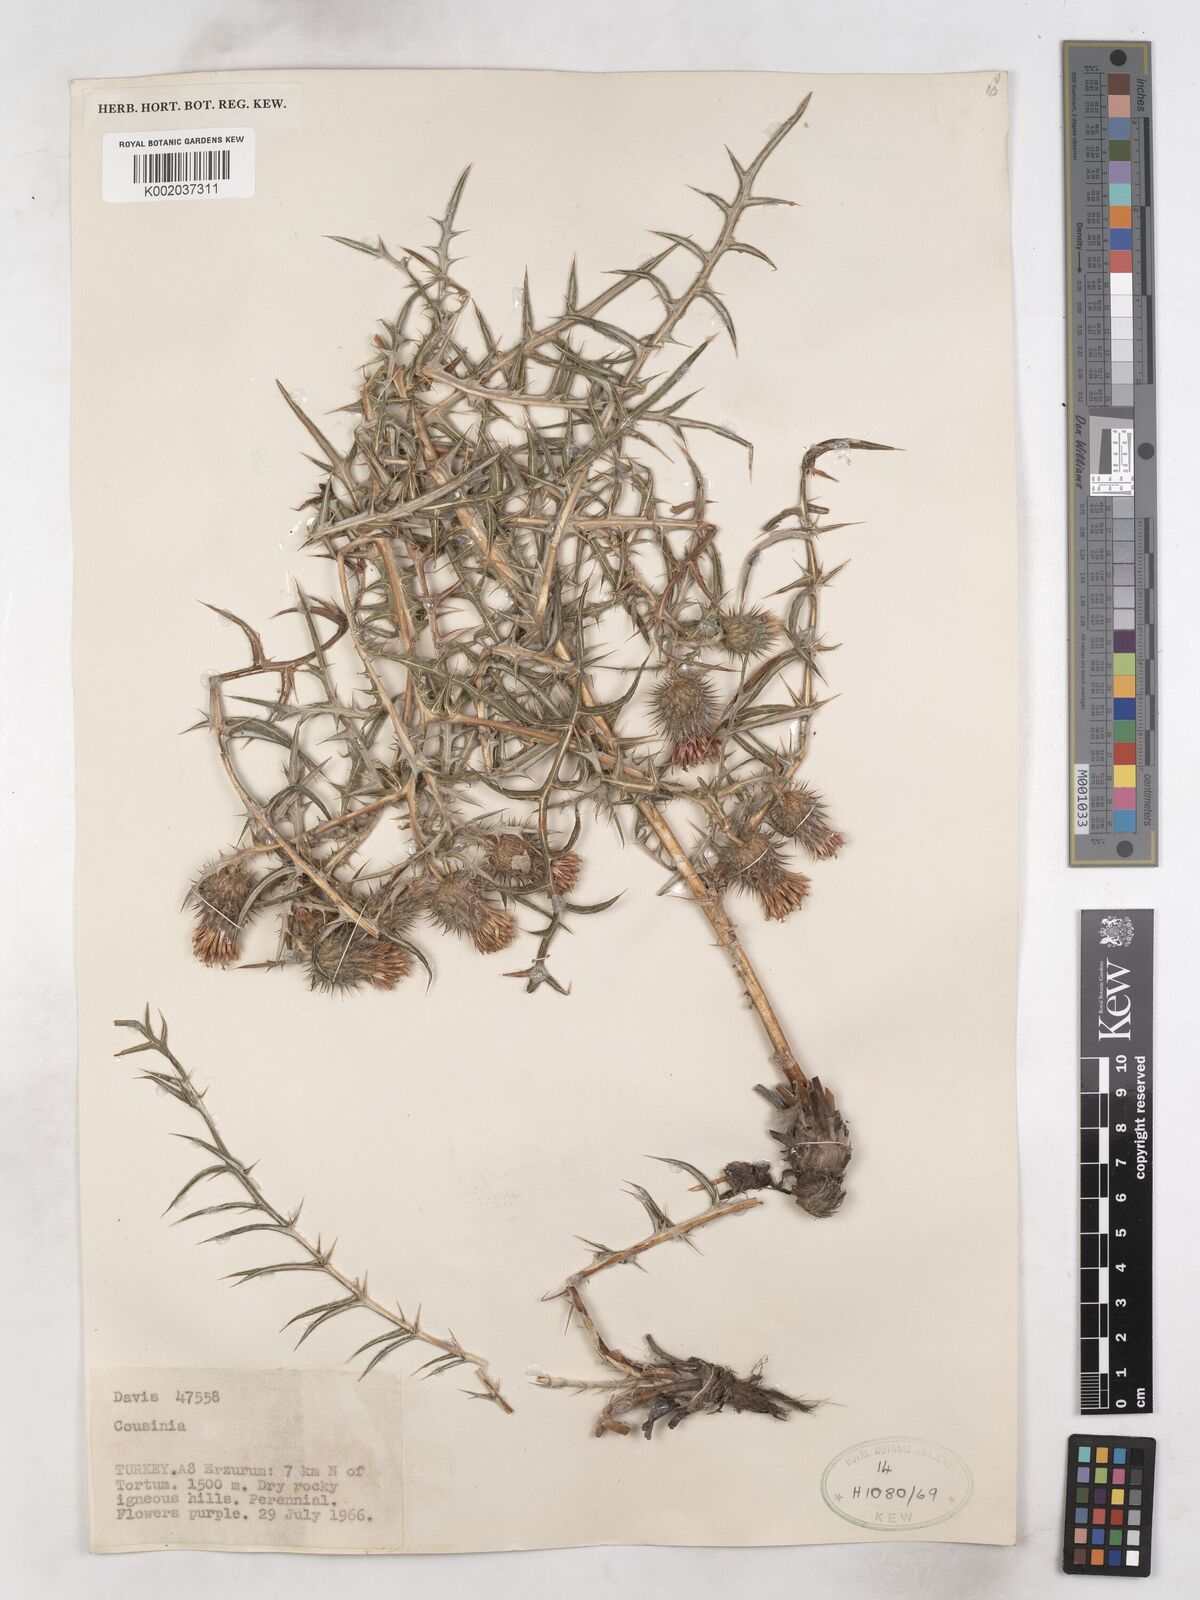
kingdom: Plantae
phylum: Tracheophyta
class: Magnoliopsida
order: Asterales
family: Asteraceae
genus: Cousinia
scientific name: Cousinia brachyptera
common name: Short-winged cousinia
